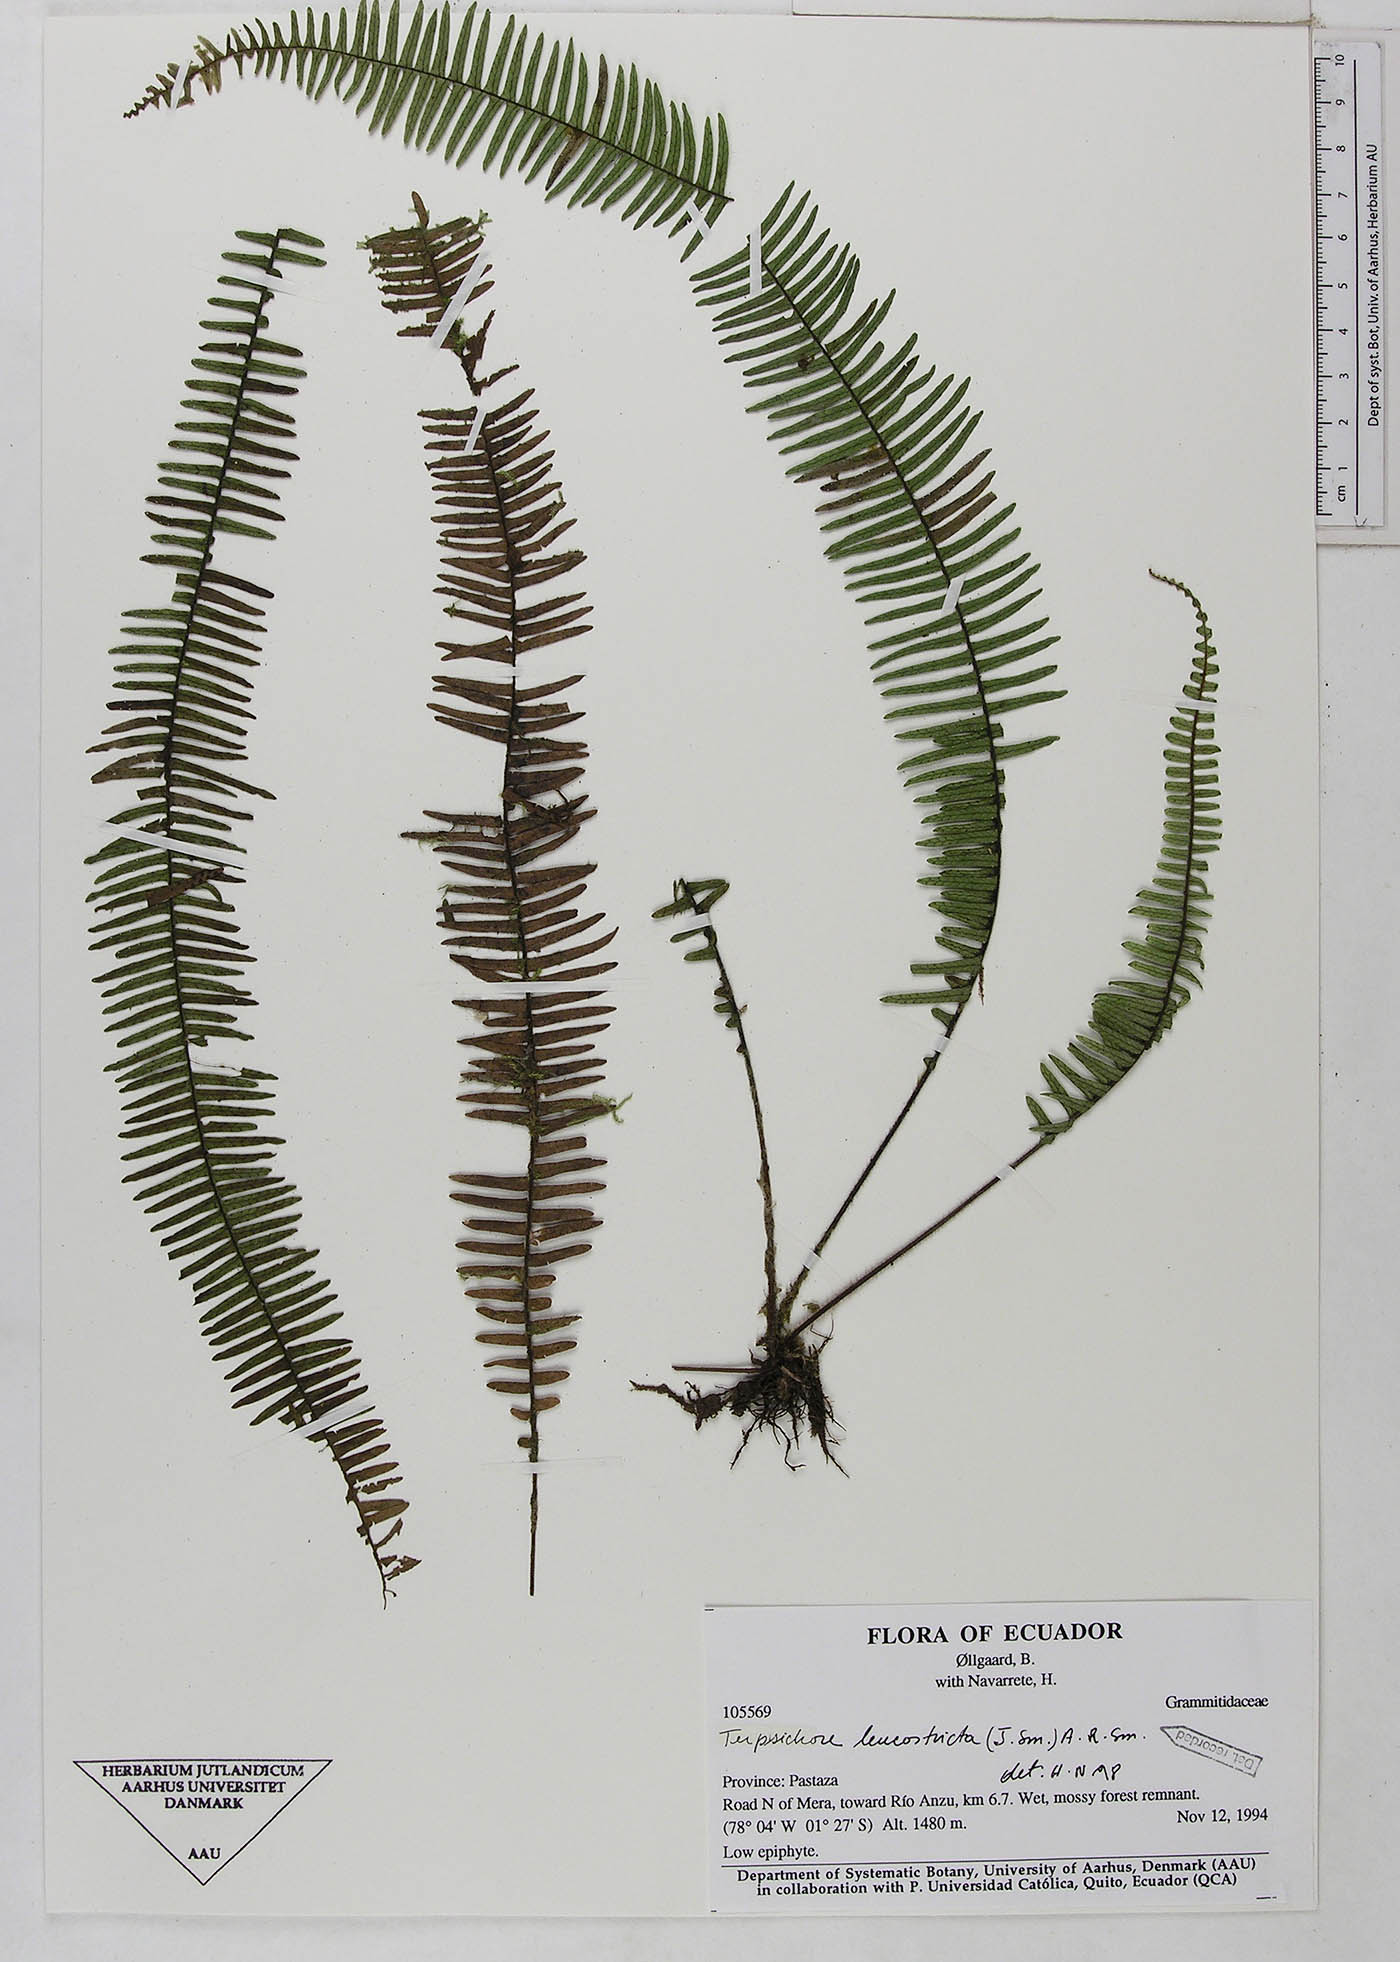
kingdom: Plantae
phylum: Tracheophyta
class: Polypodiopsida
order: Polypodiales
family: Polypodiaceae
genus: Mycopteris
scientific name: Mycopteris leucosticta
